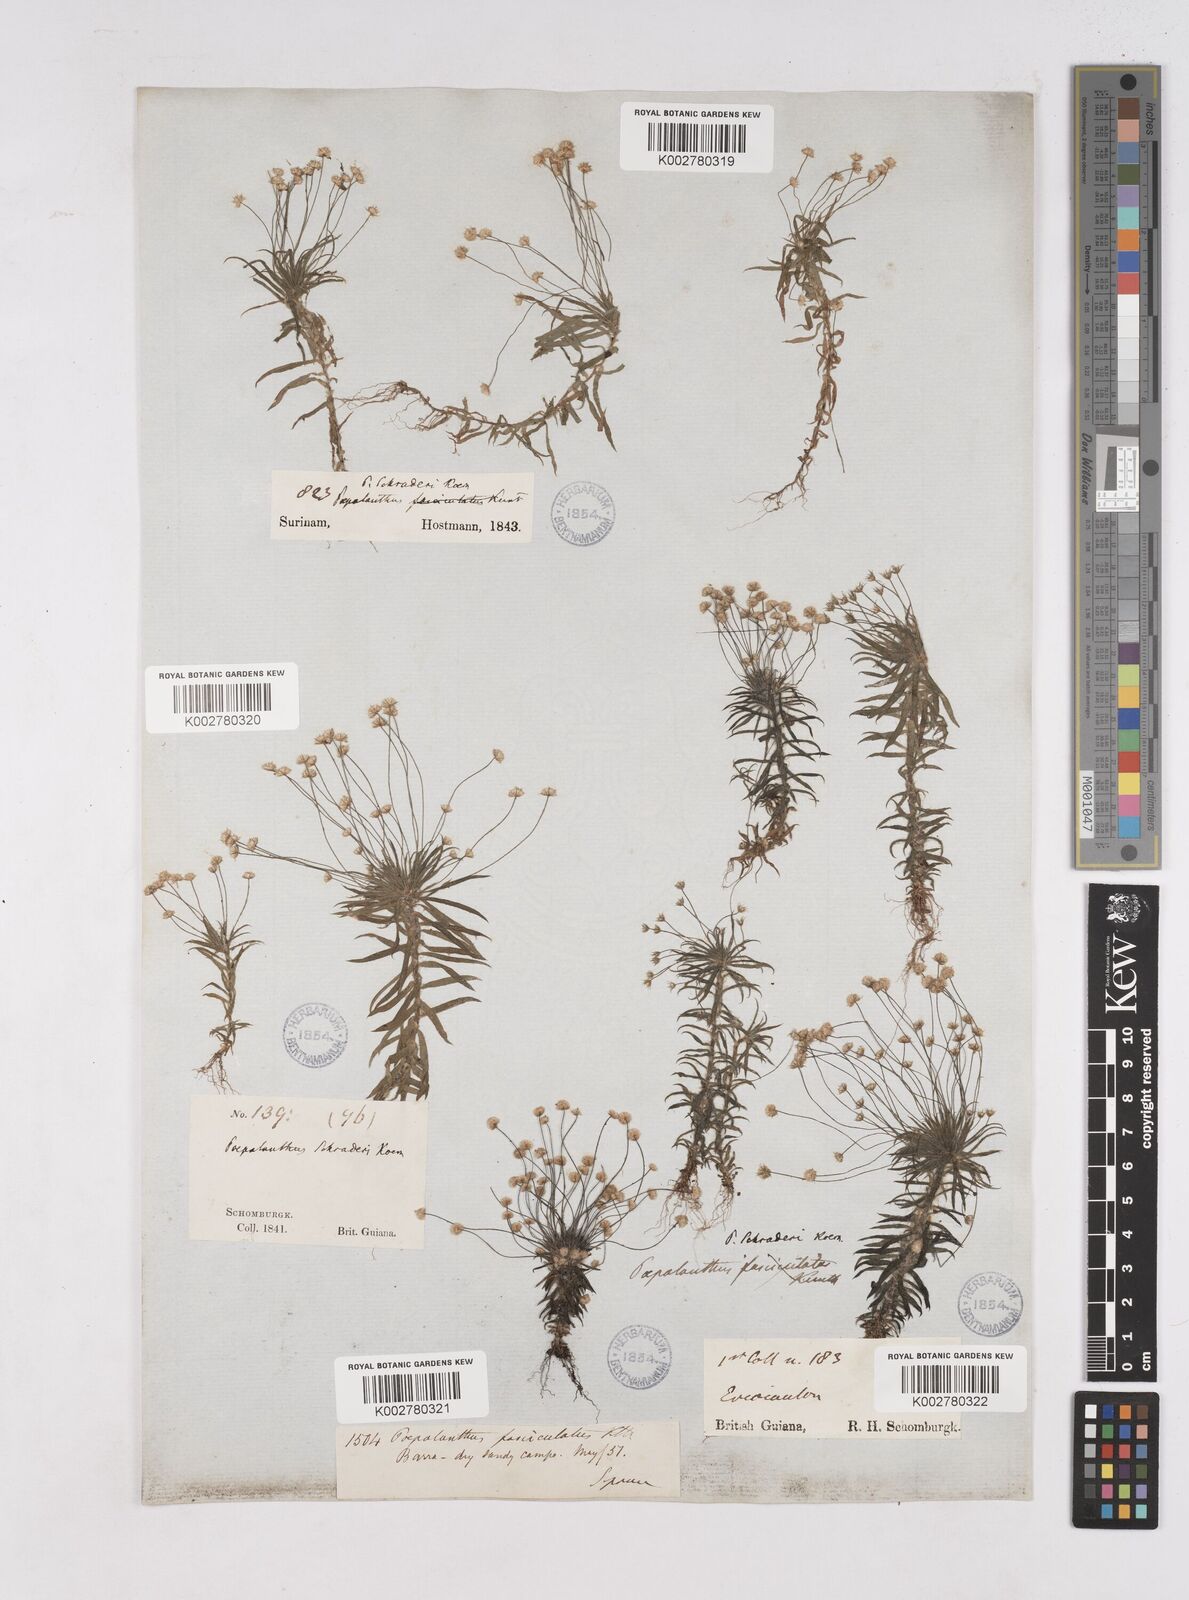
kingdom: Plantae
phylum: Tracheophyta
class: Liliopsida
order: Poales
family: Eriocaulaceae
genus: Paepalanthus
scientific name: Paepalanthus bifidus
